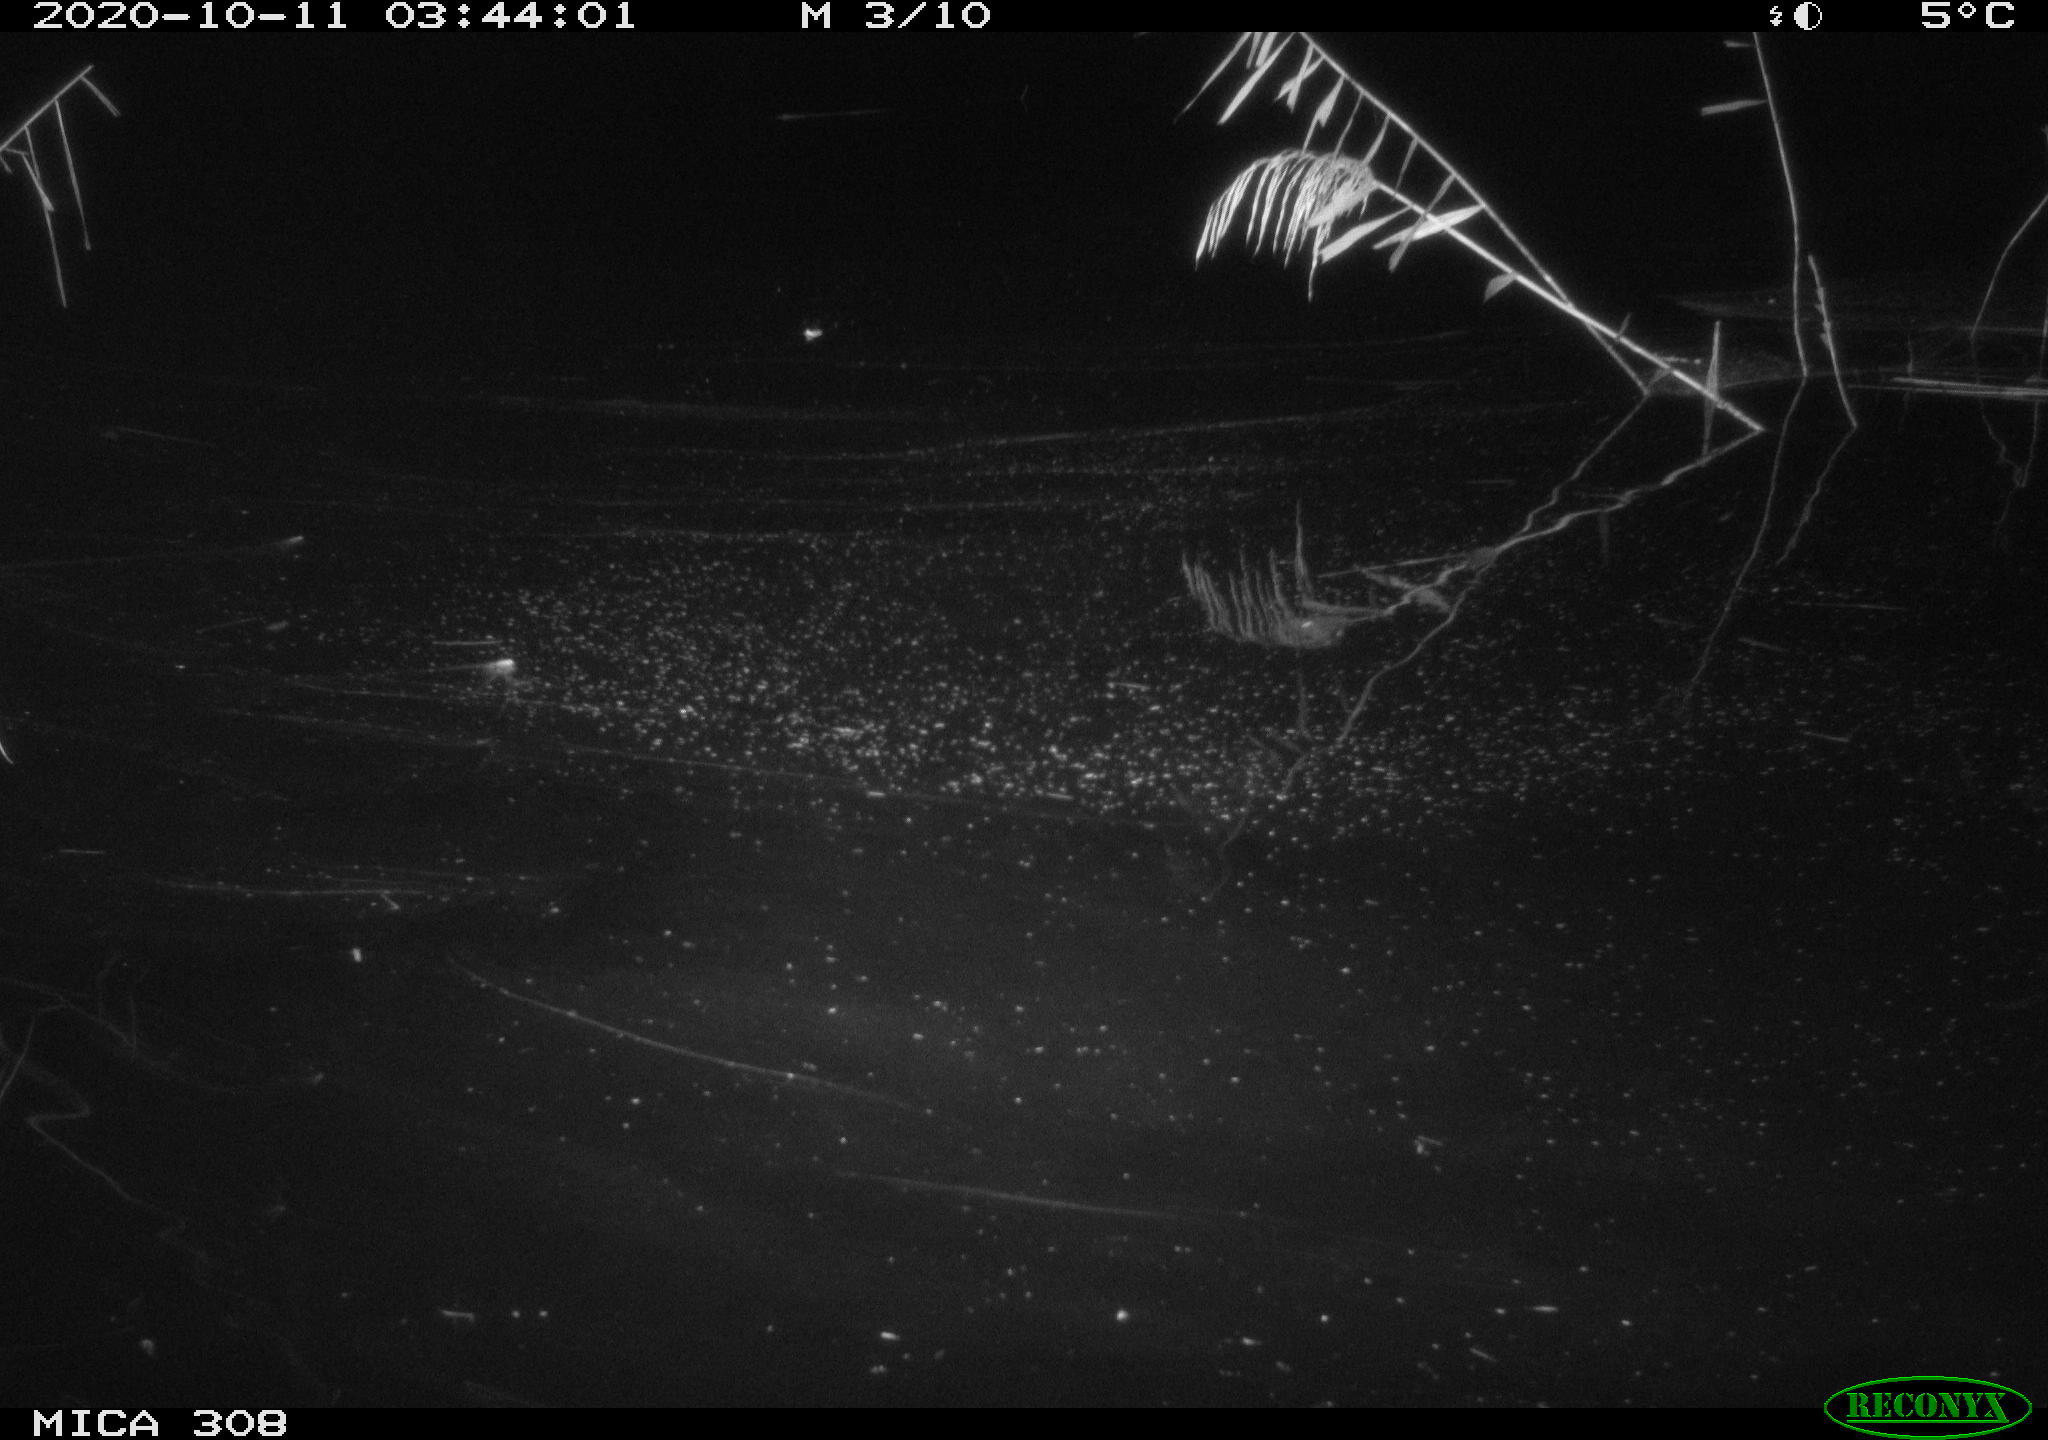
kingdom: Animalia
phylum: Chordata
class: Mammalia
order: Rodentia
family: Muridae
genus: Rattus
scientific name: Rattus norvegicus
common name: Brown rat
